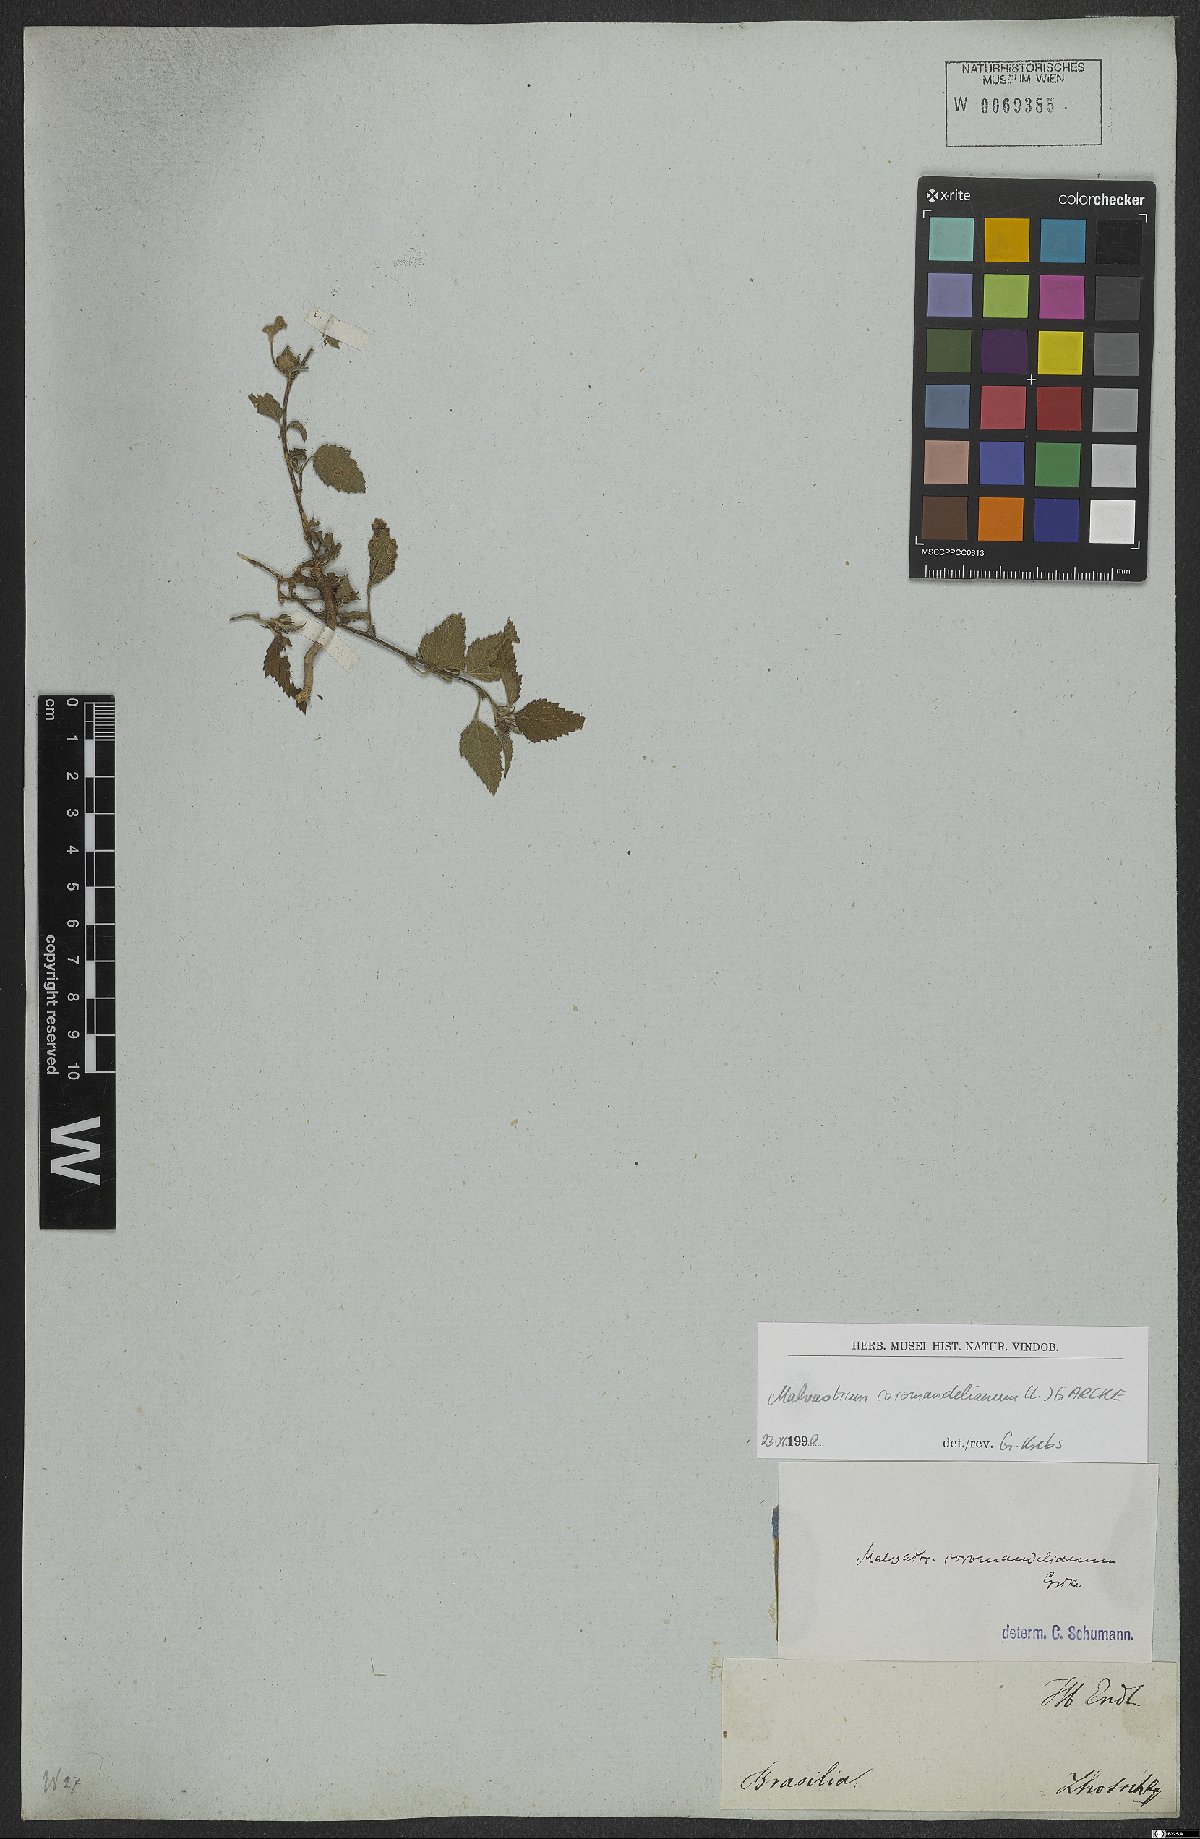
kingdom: Plantae
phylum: Tracheophyta
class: Magnoliopsida
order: Malvales
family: Malvaceae
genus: Malvastrum
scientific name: Malvastrum coromandelianum
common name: Threelobe false mallow
